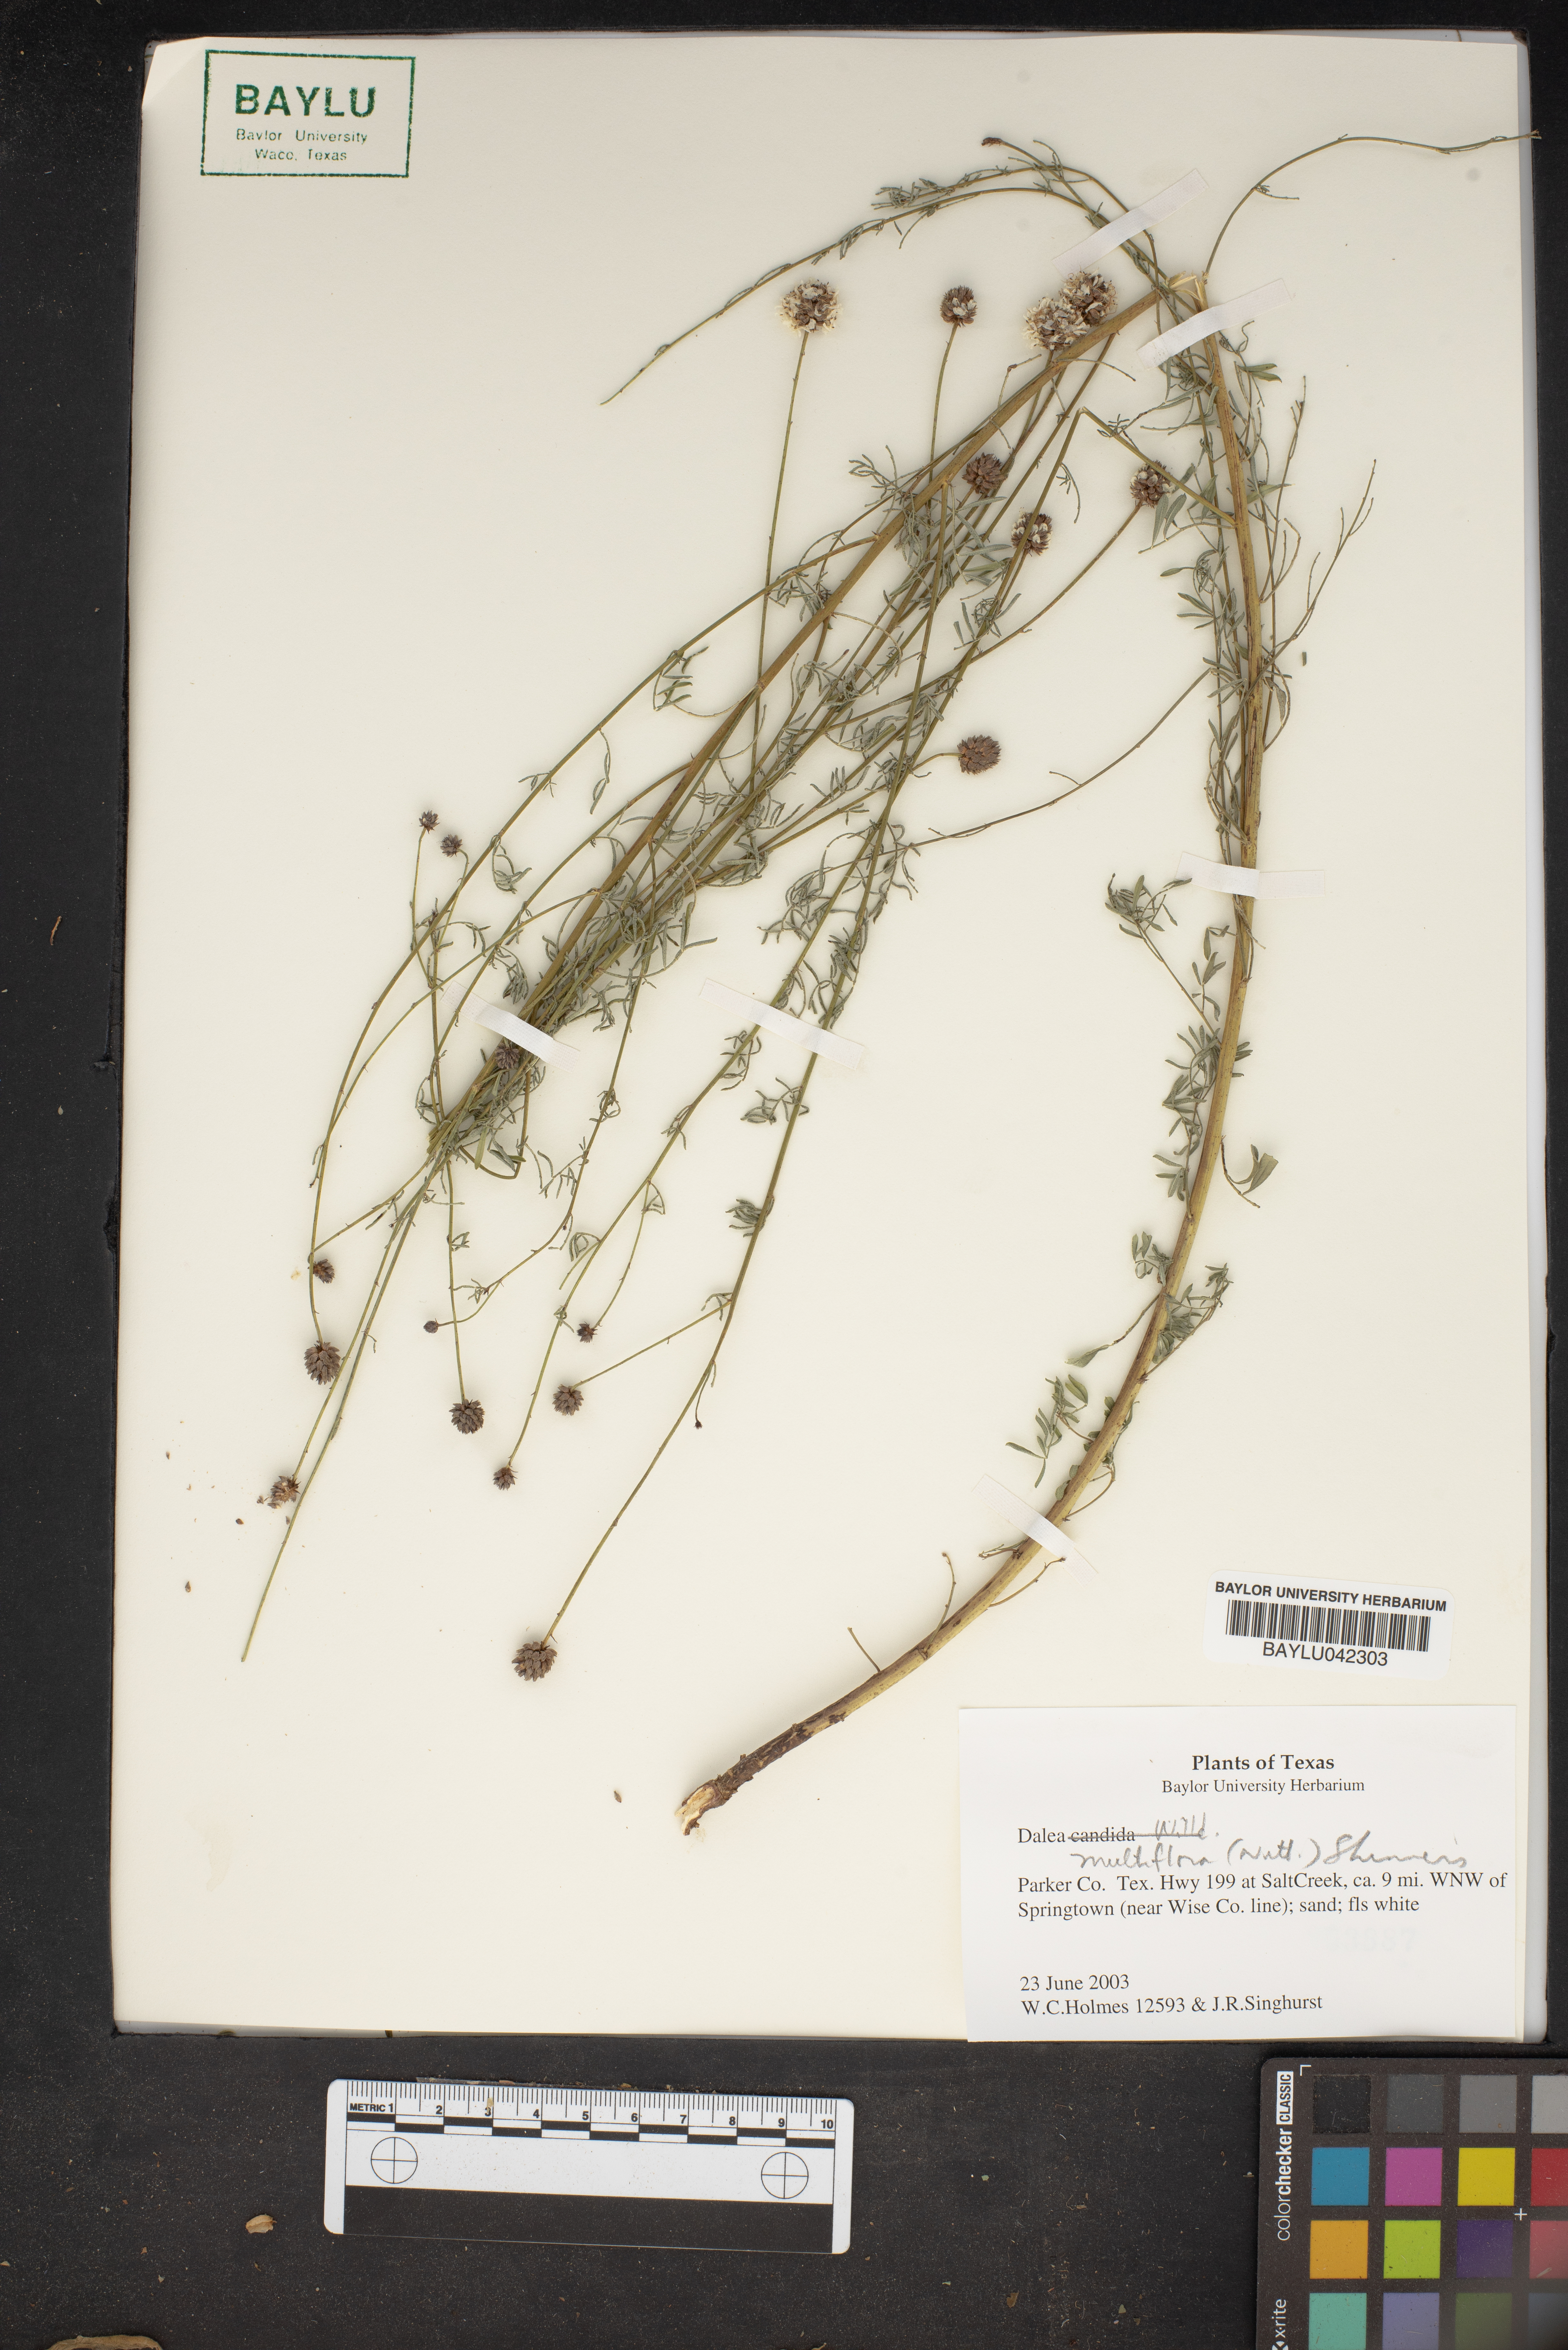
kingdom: Plantae
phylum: Tracheophyta
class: Magnoliopsida
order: Fabales
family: Fabaceae
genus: Dalea
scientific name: Dalea multiflora
